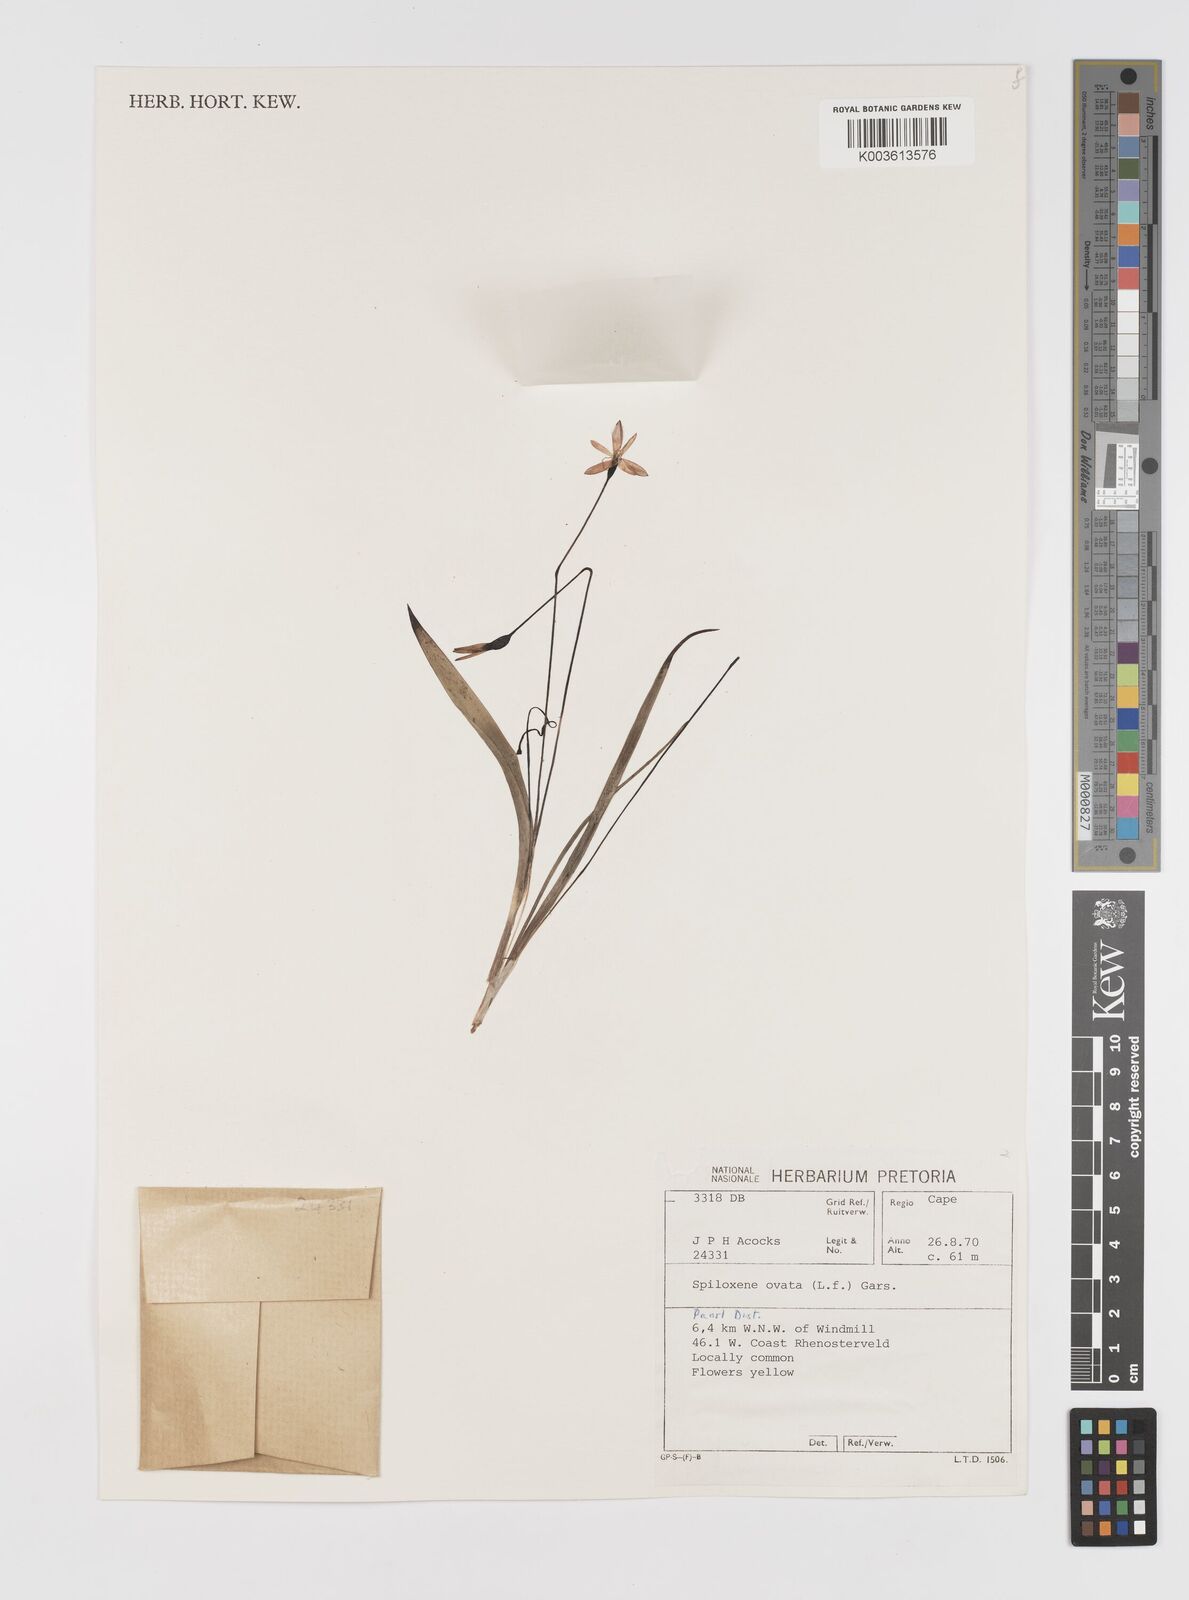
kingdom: Plantae
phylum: Tracheophyta
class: Liliopsida
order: Asparagales
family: Hypoxidaceae
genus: Pauridia
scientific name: Pauridia ovata
